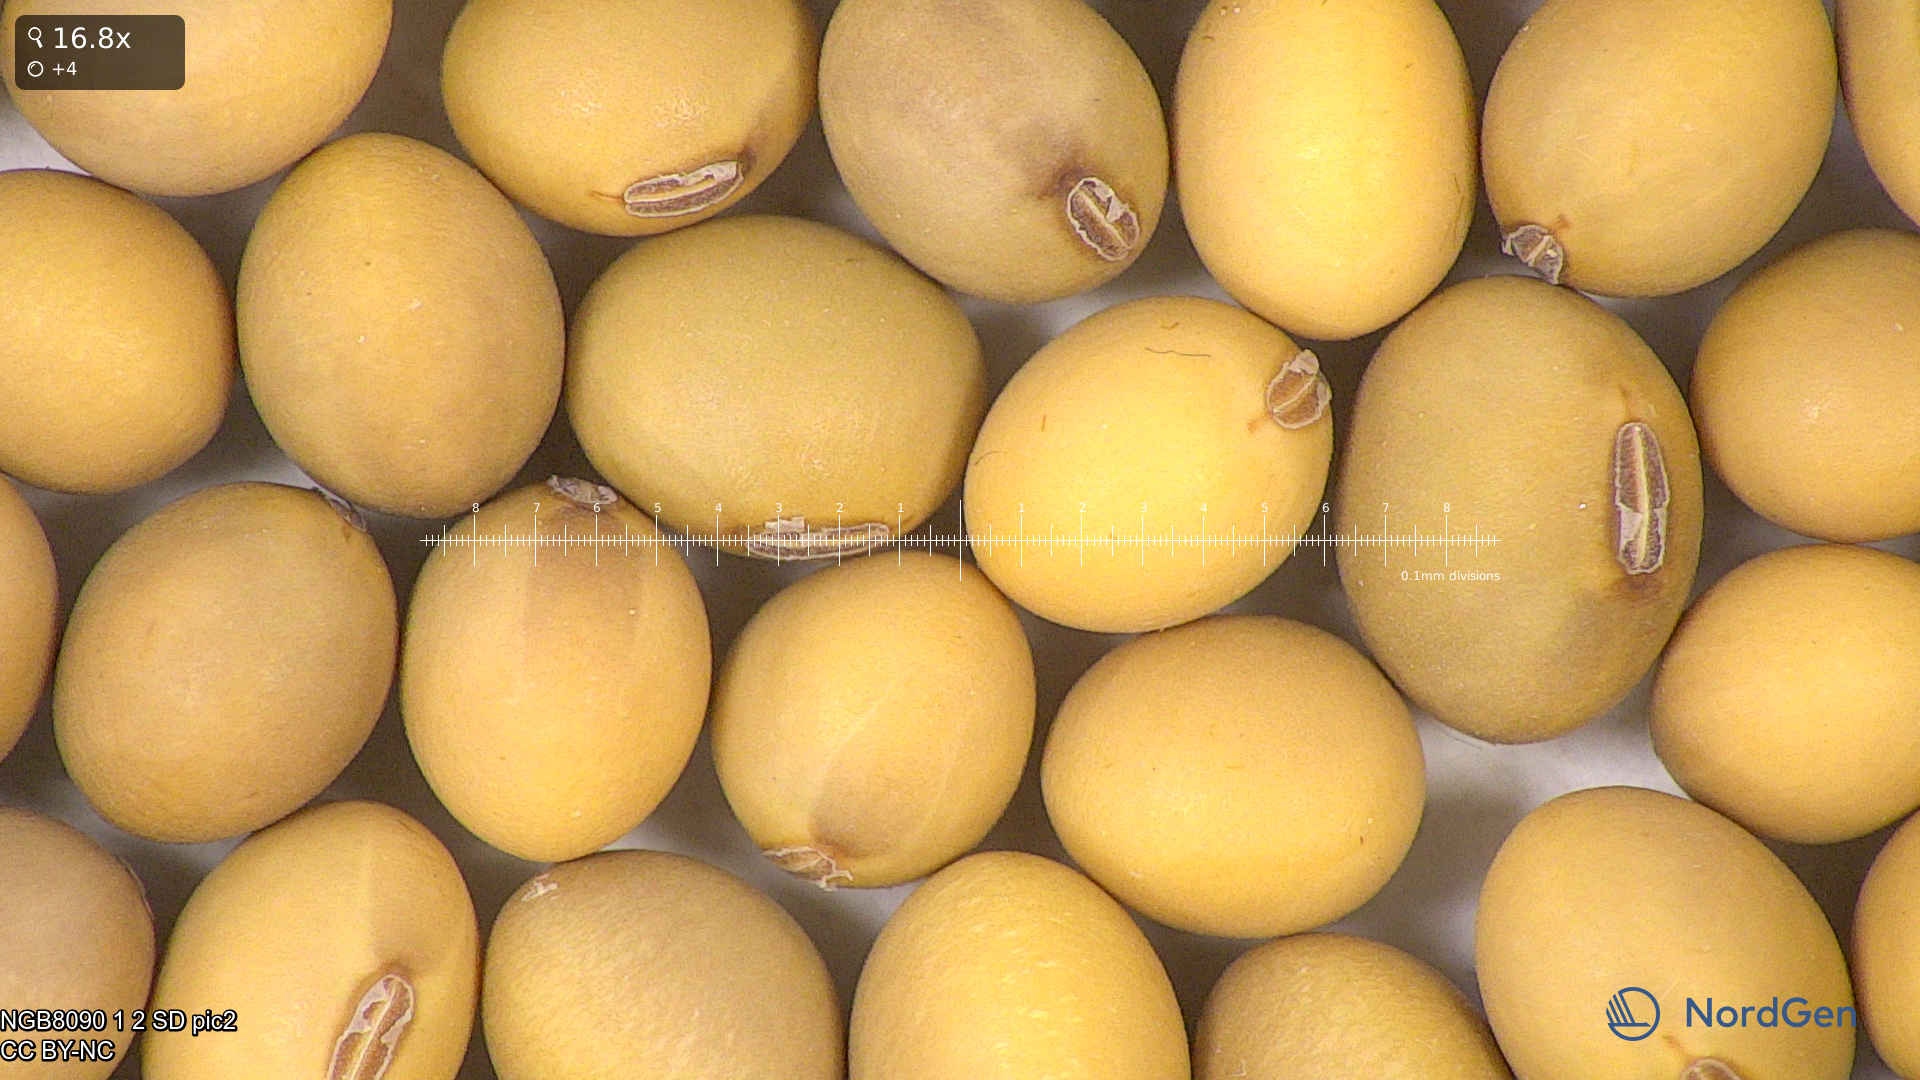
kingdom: Plantae
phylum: Tracheophyta
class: Magnoliopsida
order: Fabales
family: Fabaceae
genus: Glycine
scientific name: Glycine max
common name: Soya-bean
